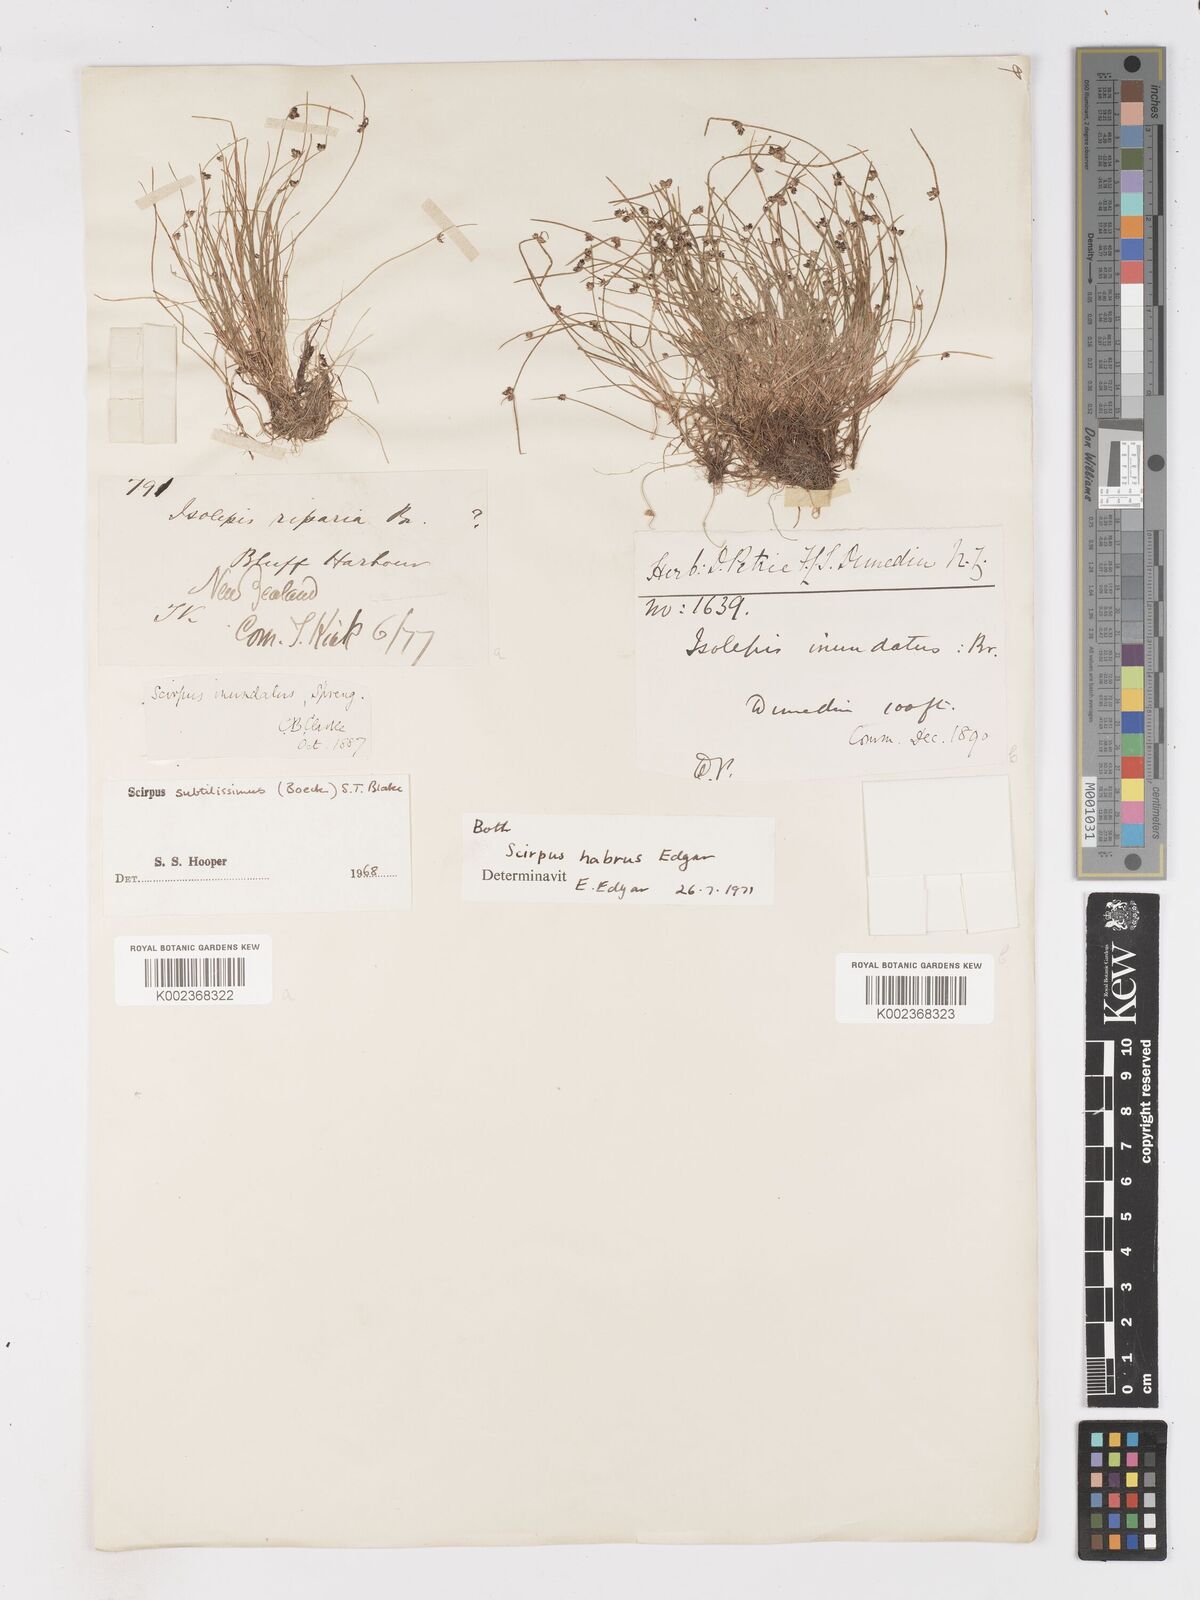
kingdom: Plantae
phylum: Tracheophyta
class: Liliopsida
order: Poales
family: Cyperaceae
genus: Isolepis
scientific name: Isolepis habra
